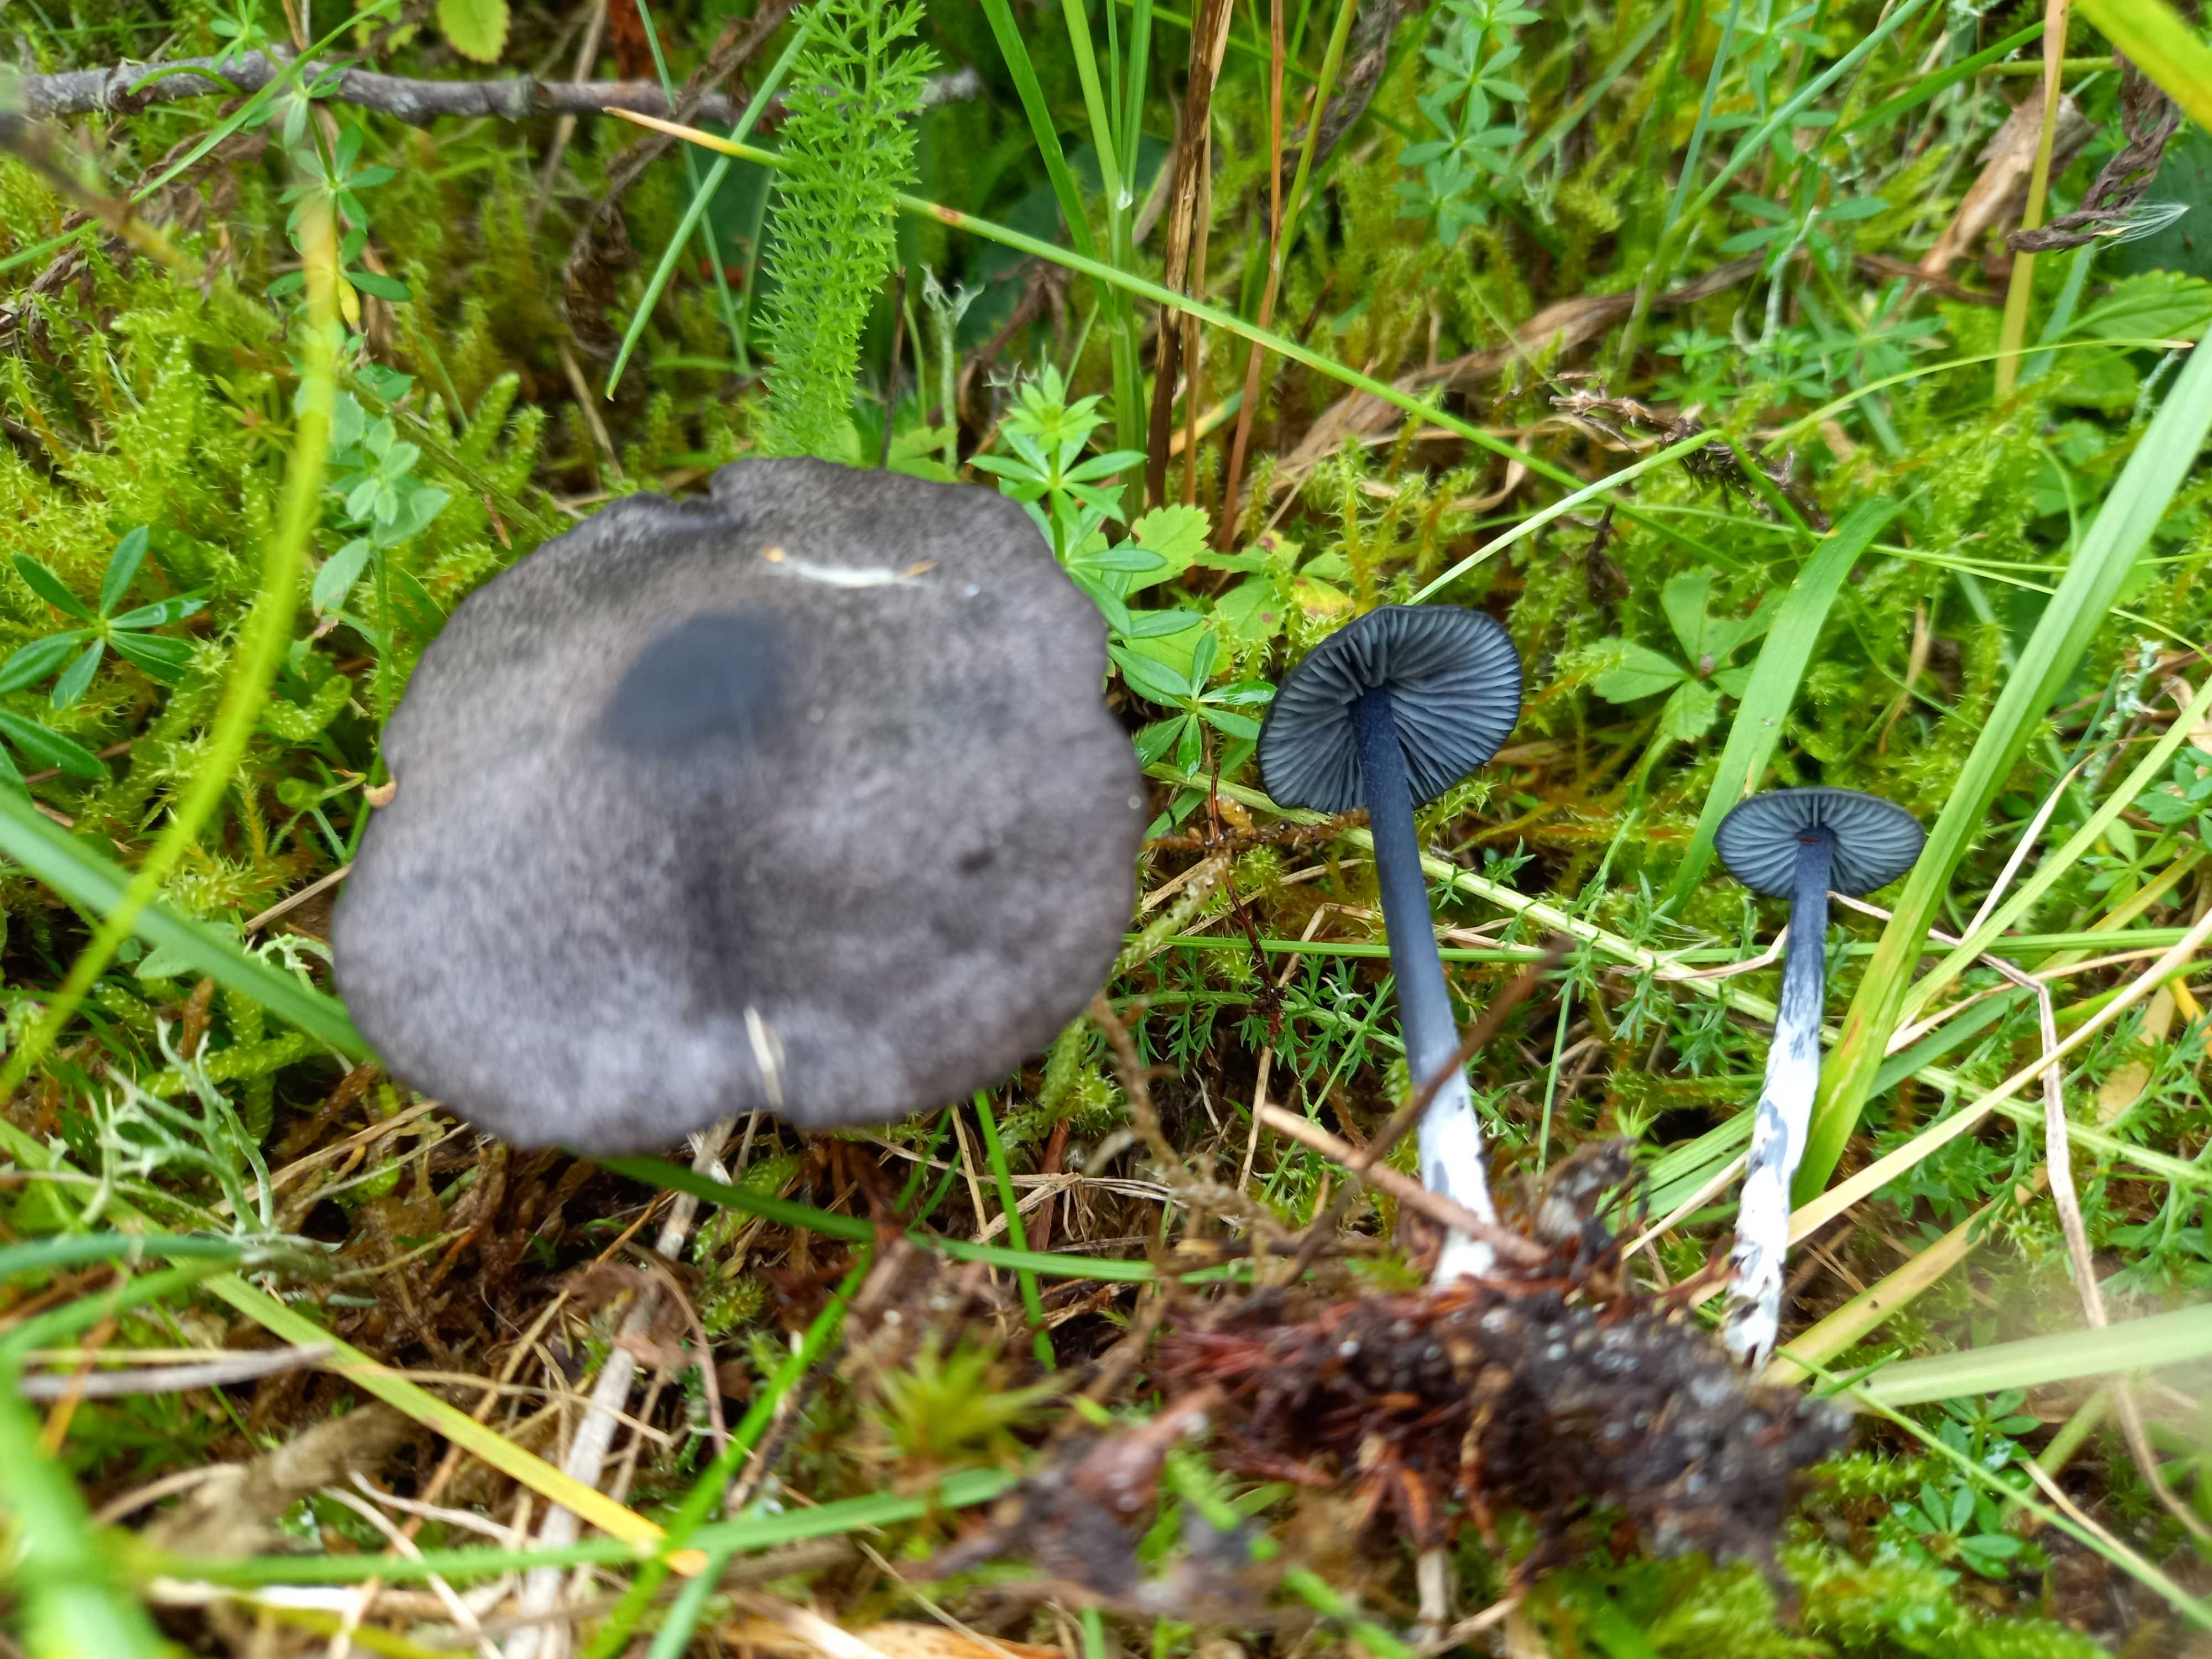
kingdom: Fungi
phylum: Basidiomycota
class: Agaricomycetes
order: Agaricales
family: Entolomataceae
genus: Entoloma
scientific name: Entoloma chalybeum
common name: blåbladet rødblad
